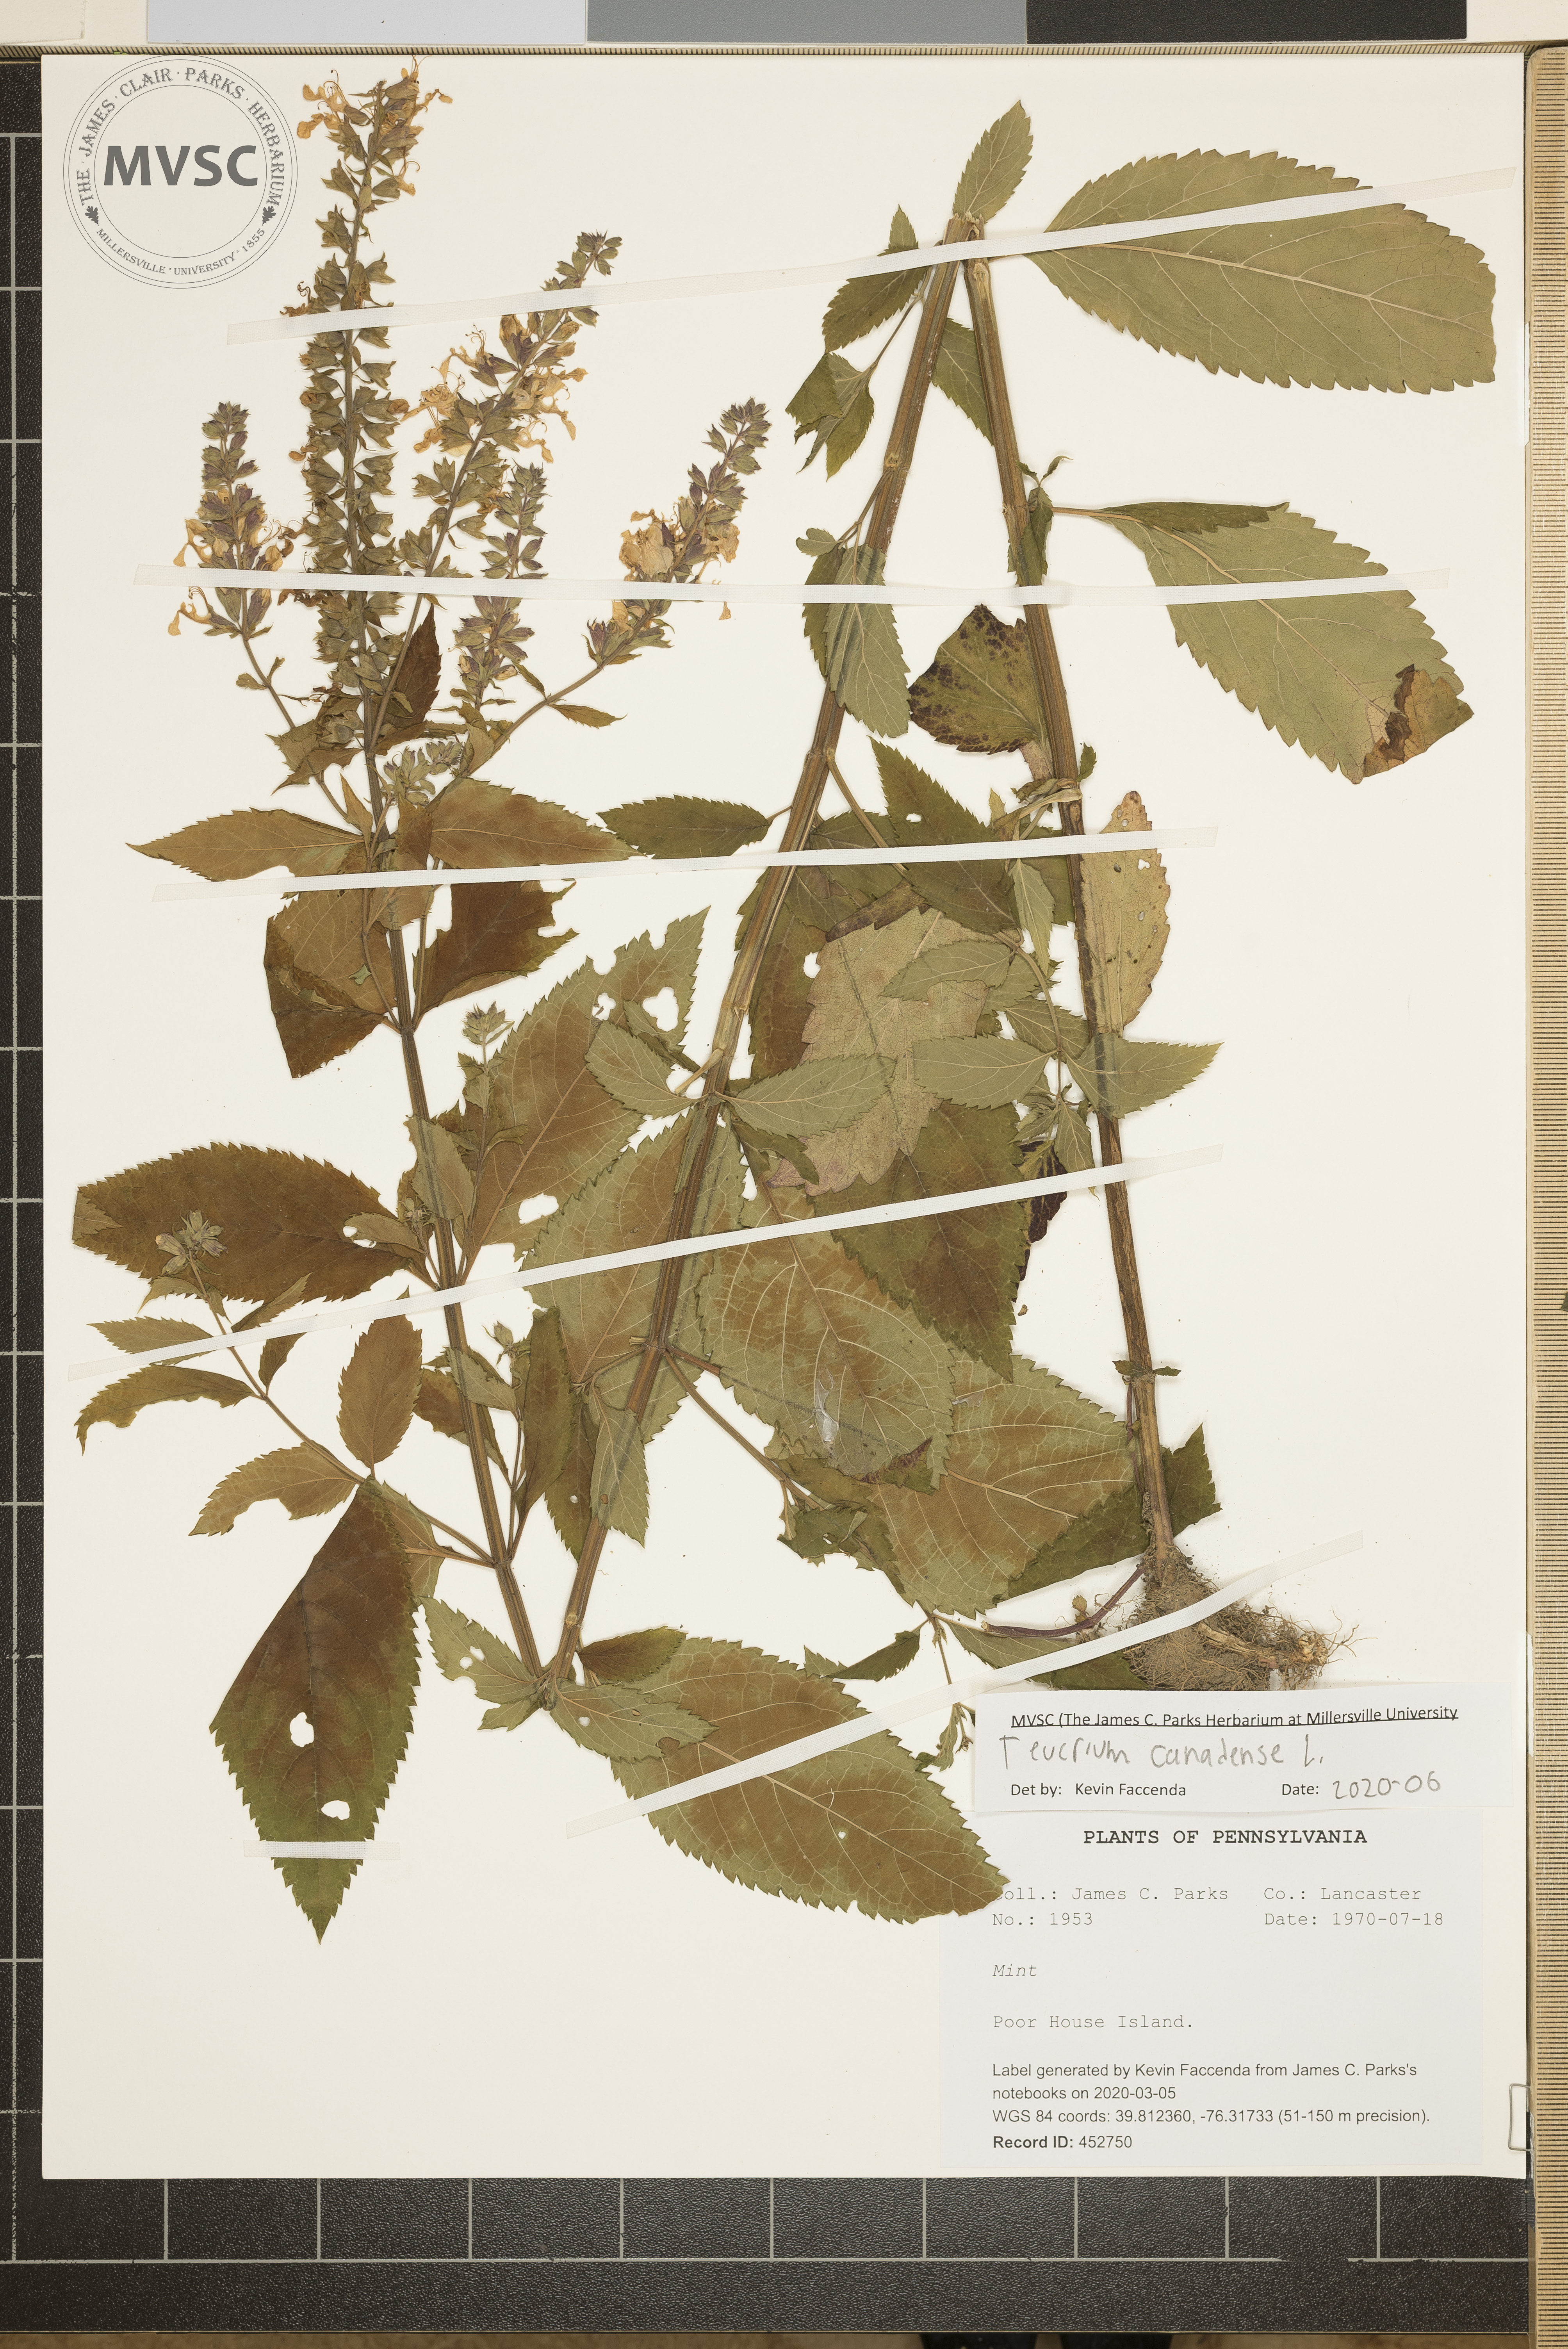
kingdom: Plantae
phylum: Tracheophyta
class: Magnoliopsida
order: Lamiales
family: Lamiaceae
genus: Teucrium
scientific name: Teucrium canadense
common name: American germander
